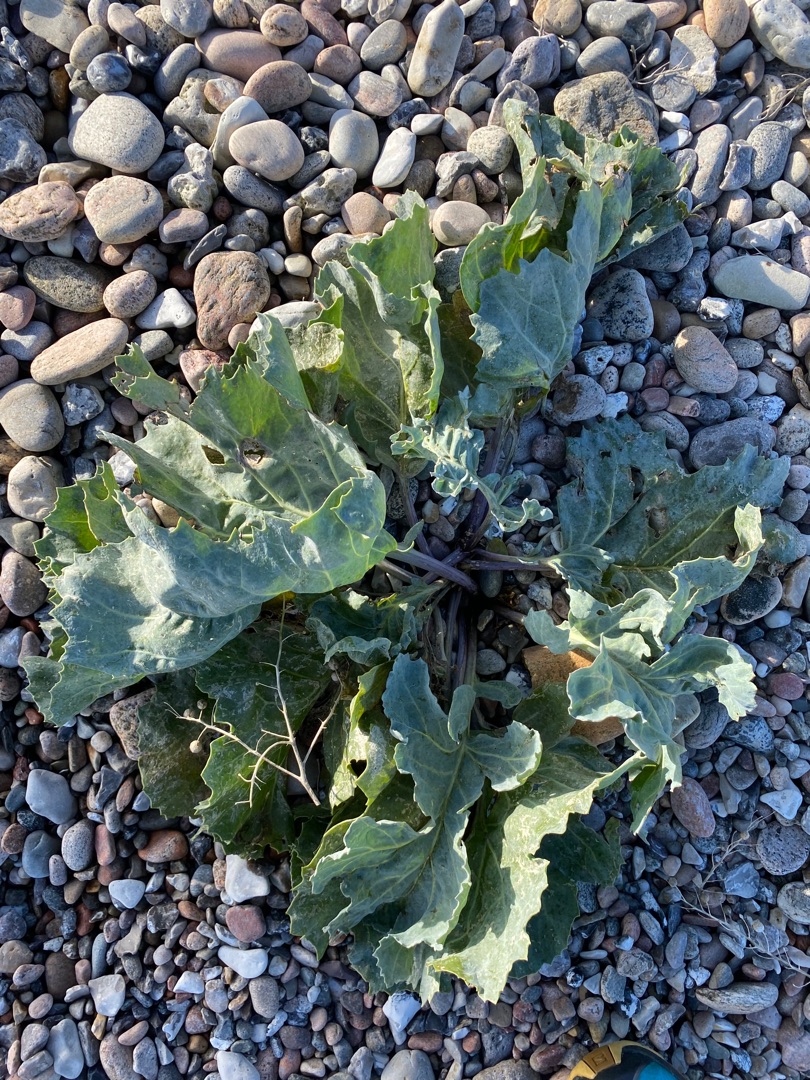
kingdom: Plantae
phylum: Tracheophyta
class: Magnoliopsida
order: Brassicales
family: Brassicaceae
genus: Crambe
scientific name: Crambe maritima
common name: Strandkål
